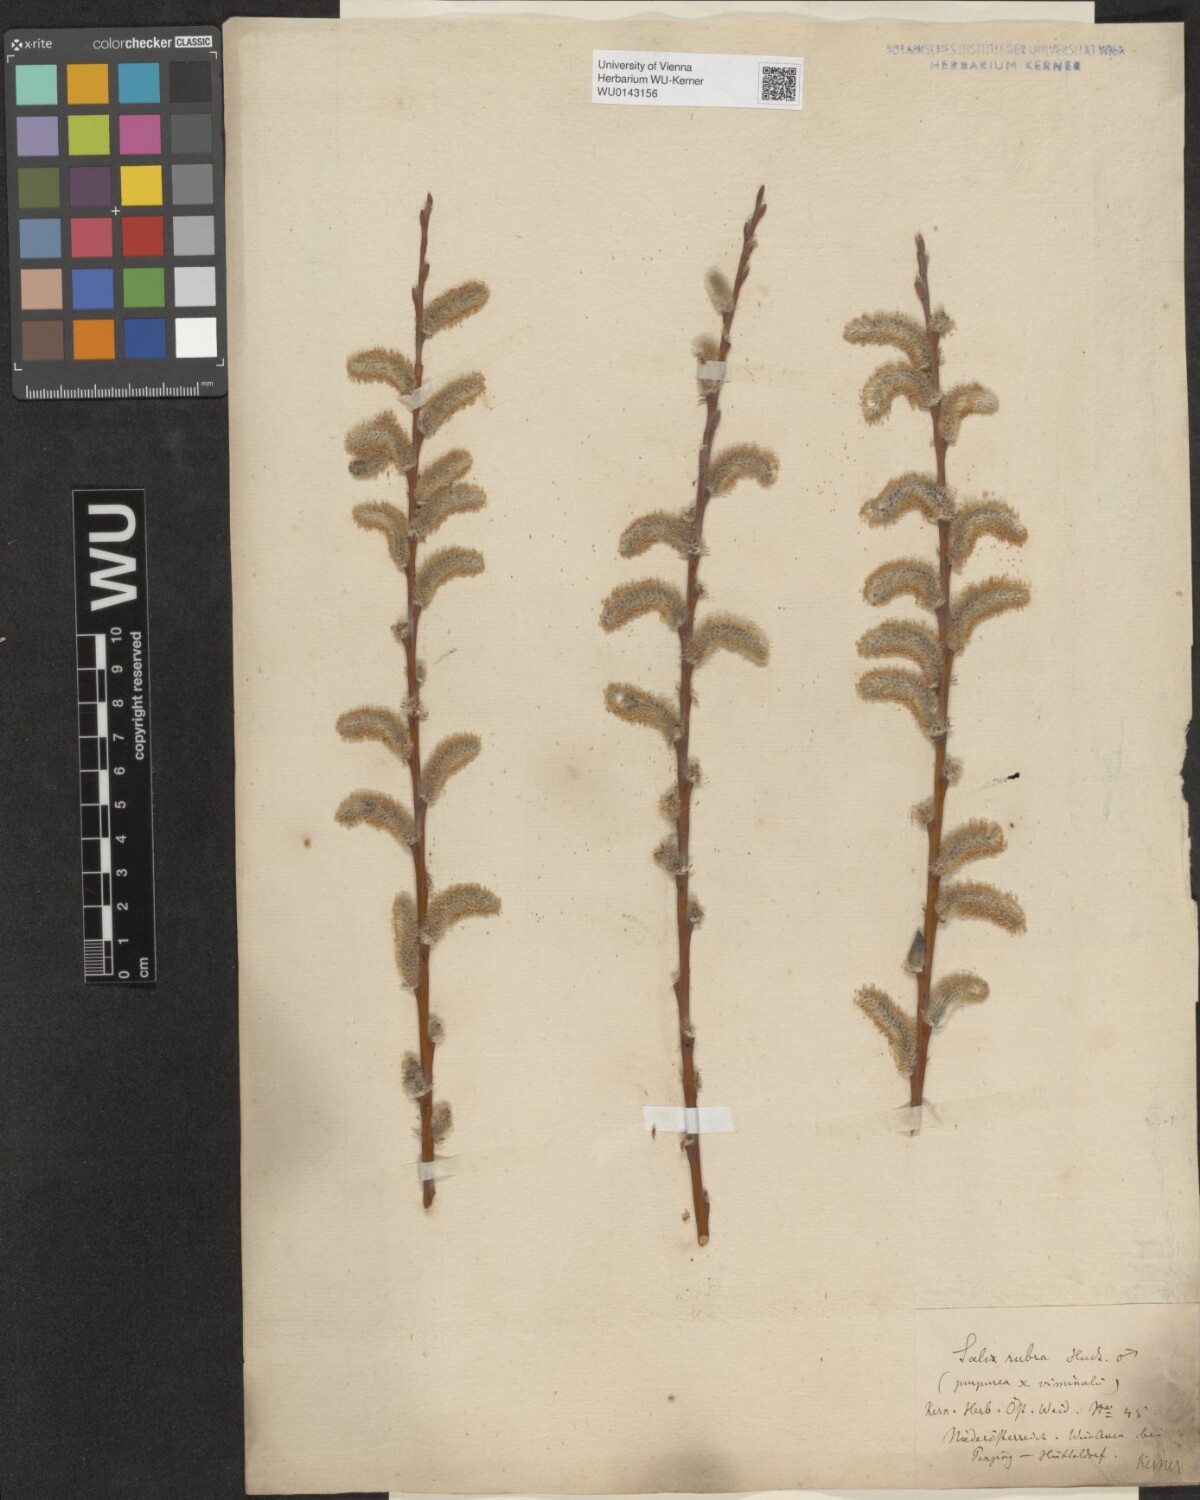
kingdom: Plantae
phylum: Tracheophyta
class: Magnoliopsida
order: Malpighiales
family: Salicaceae
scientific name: Salicaceae
